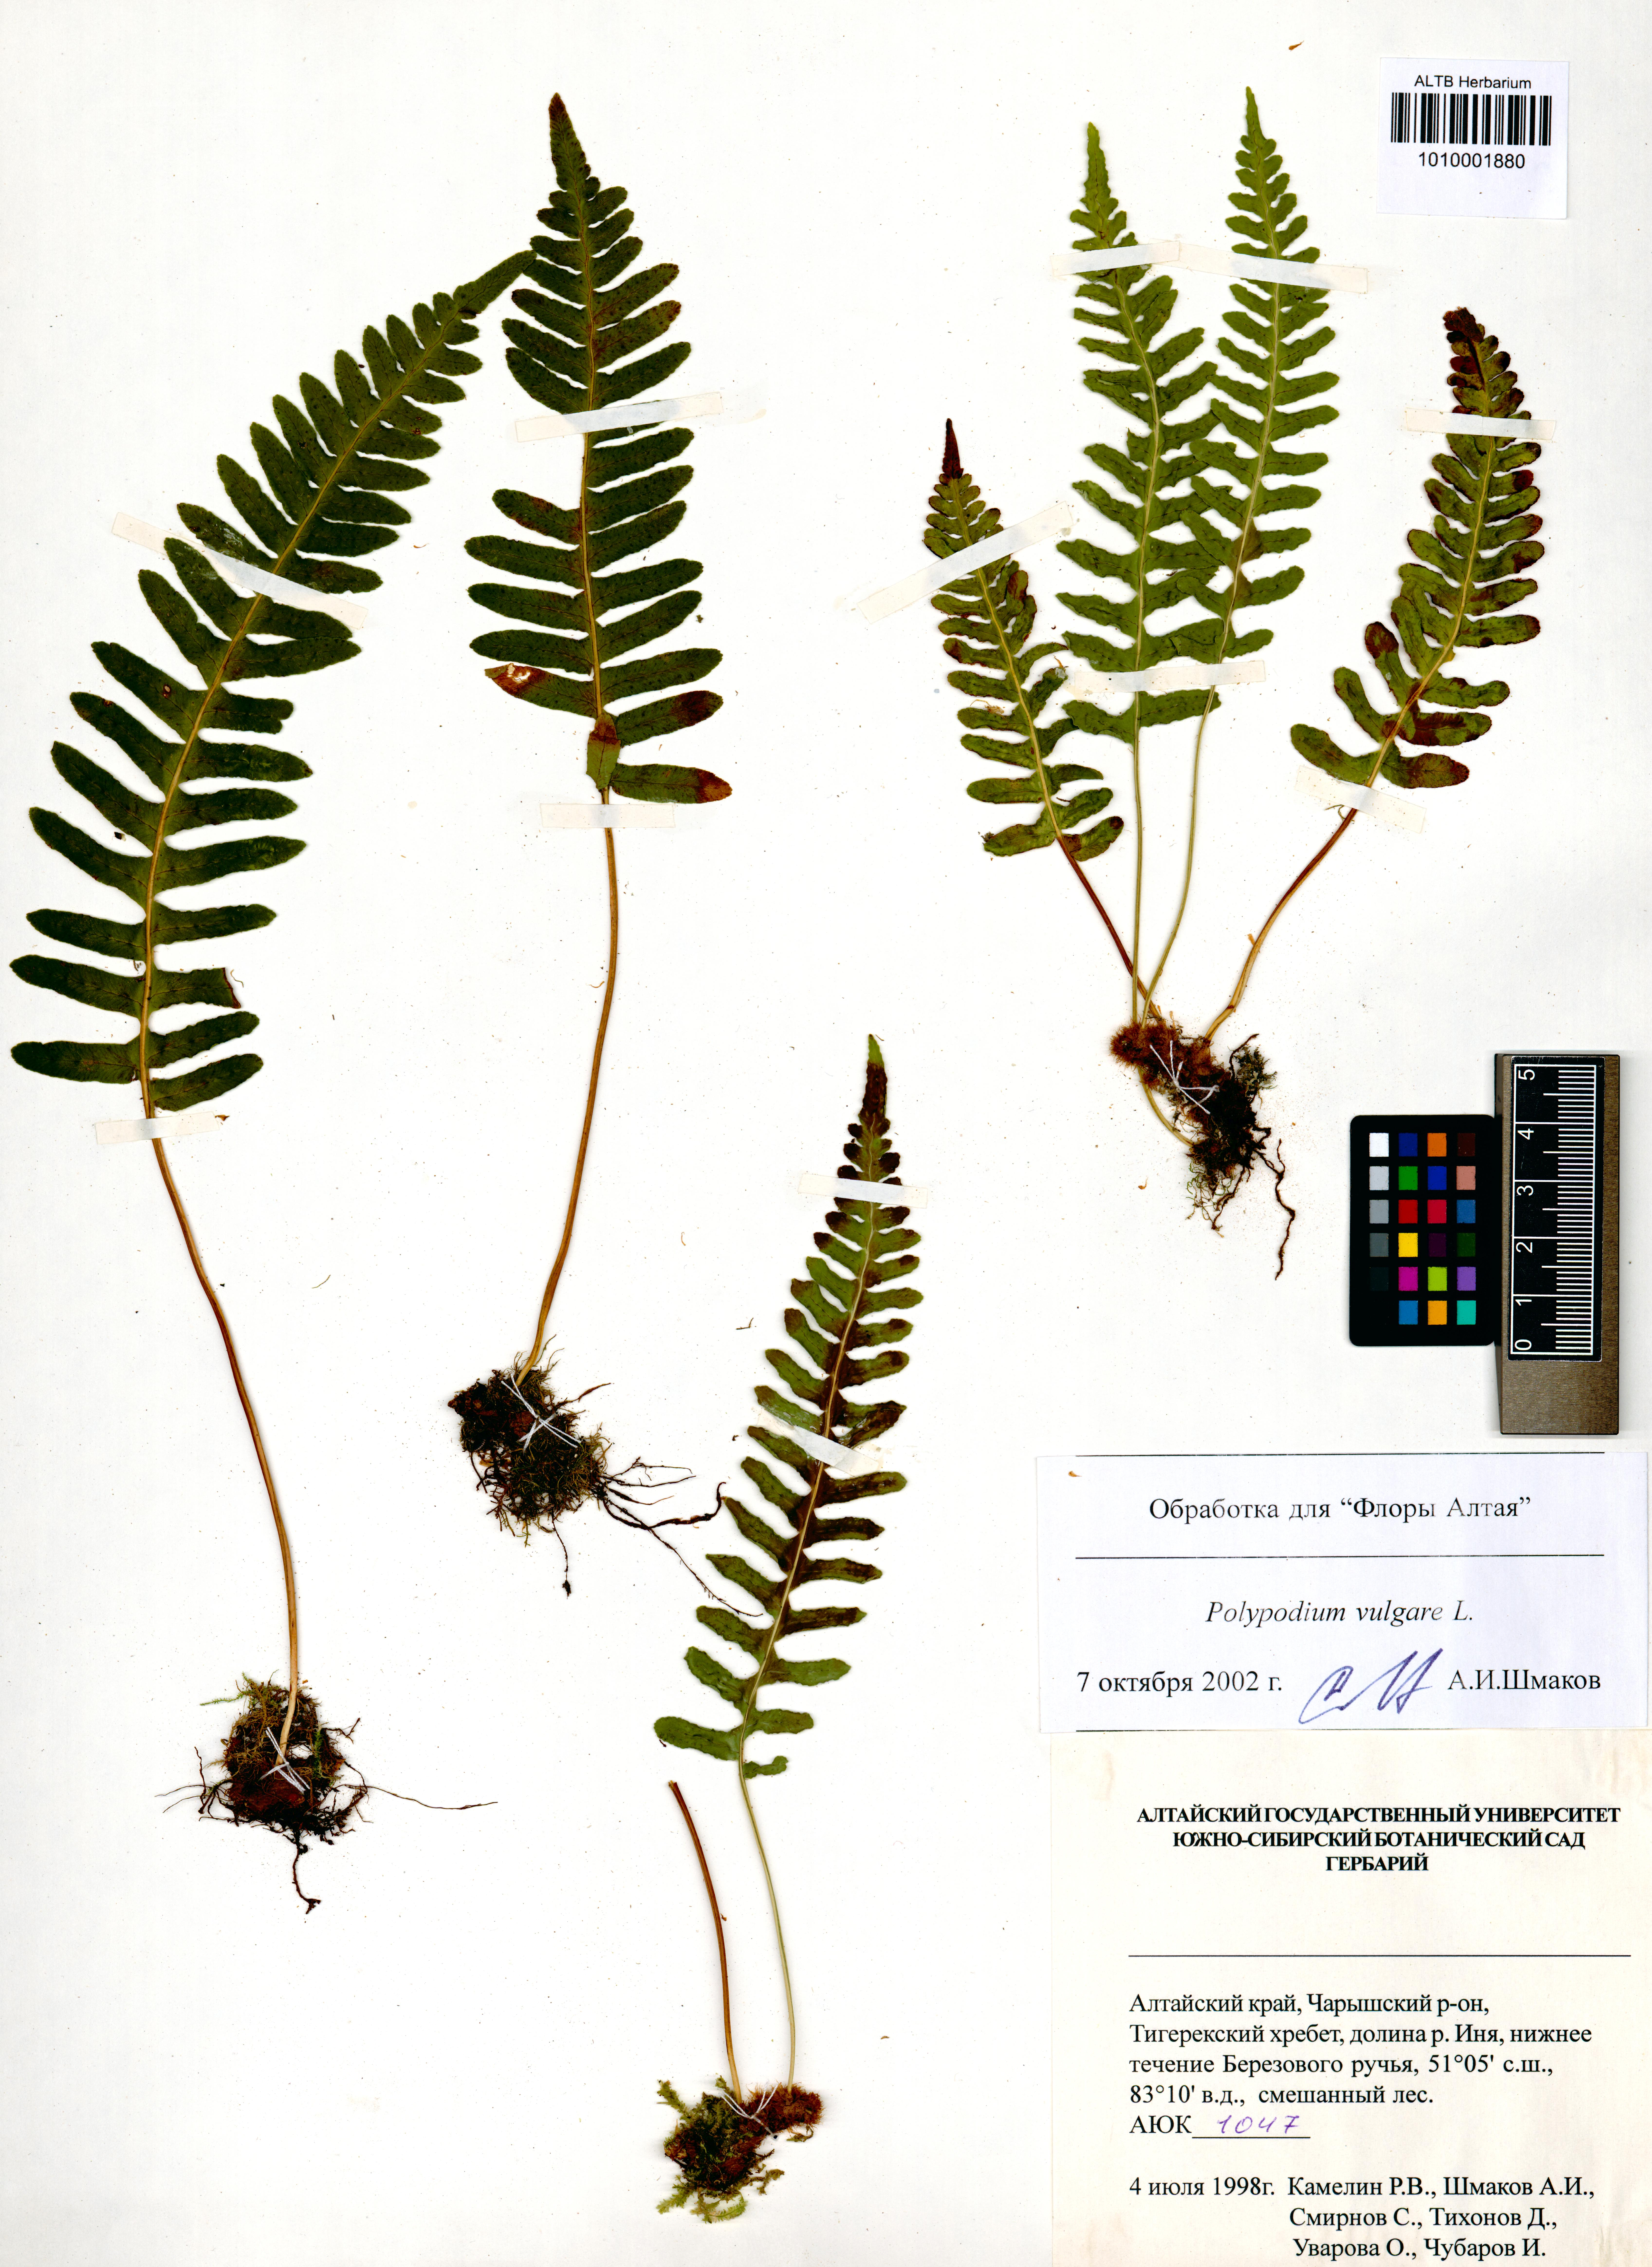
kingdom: Plantae
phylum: Tracheophyta
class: Polypodiopsida
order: Polypodiales
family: Polypodiaceae
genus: Polypodium
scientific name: Polypodium vulgare
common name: Common polypody
